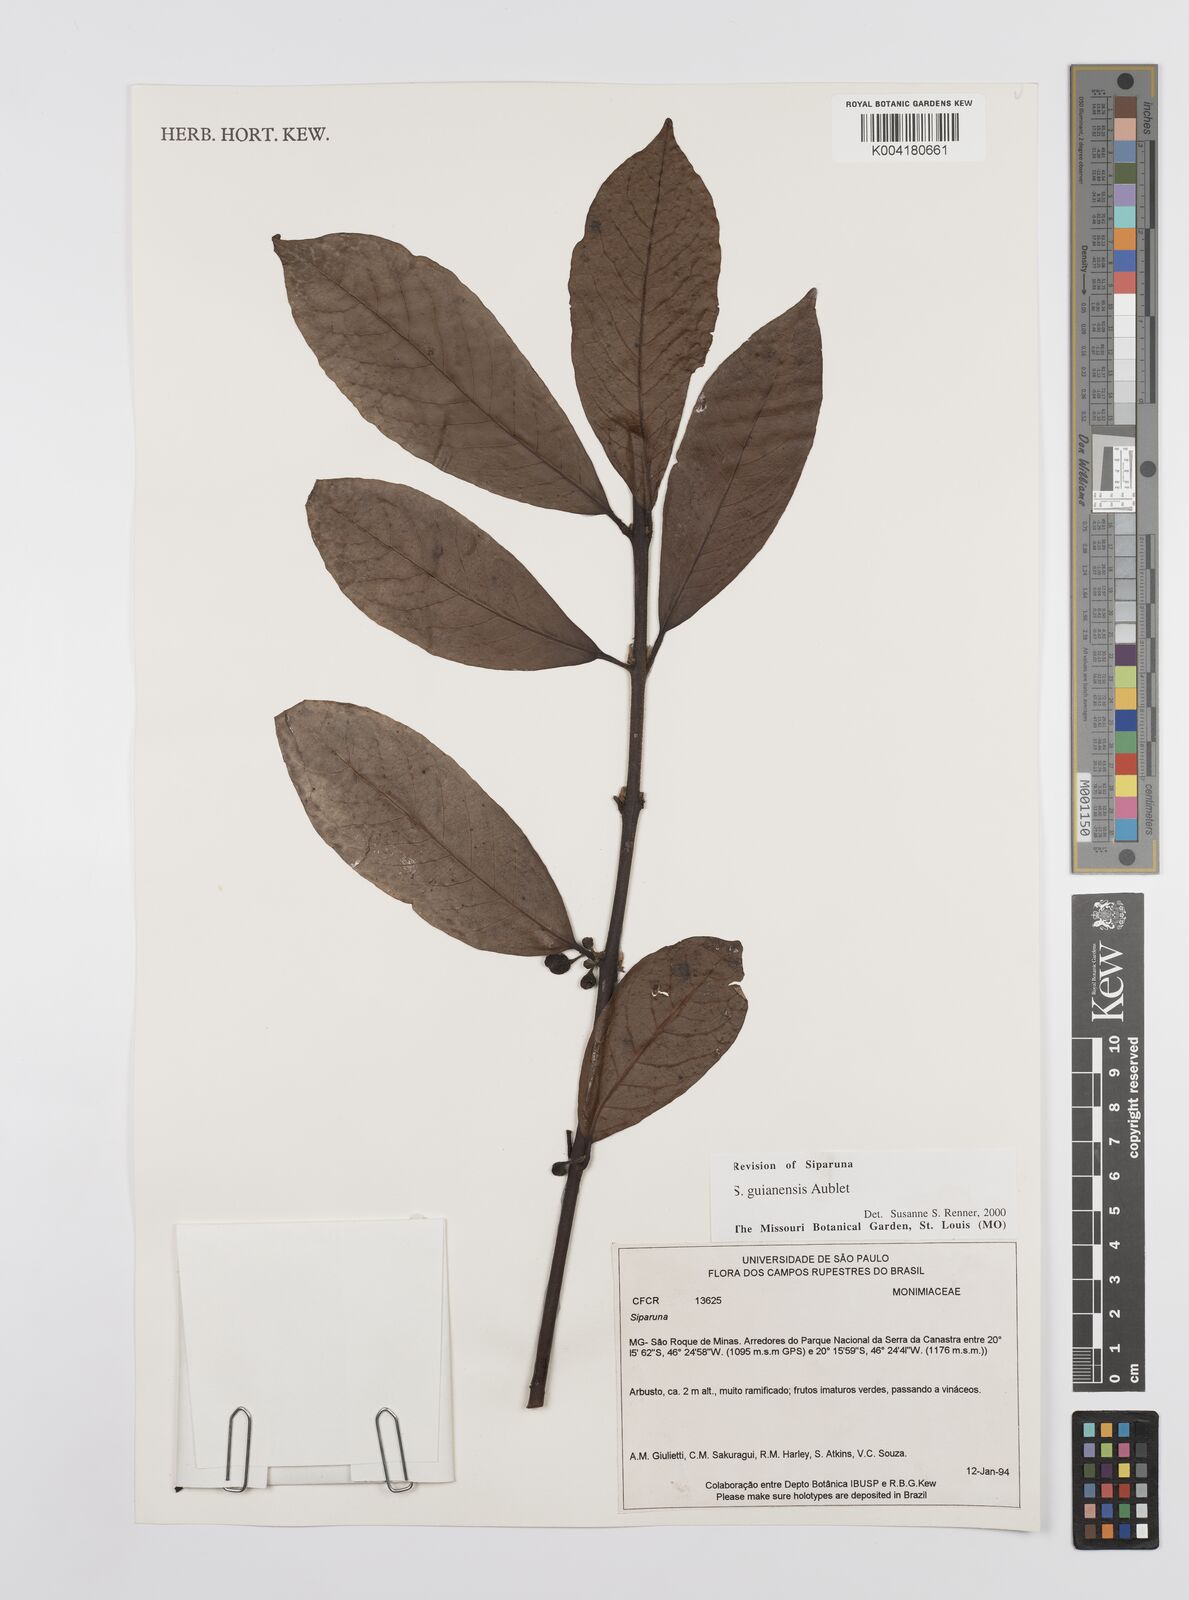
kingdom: Plantae
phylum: Tracheophyta
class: Magnoliopsida
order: Laurales
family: Siparunaceae
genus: Siparuna
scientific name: Siparuna guianensis
